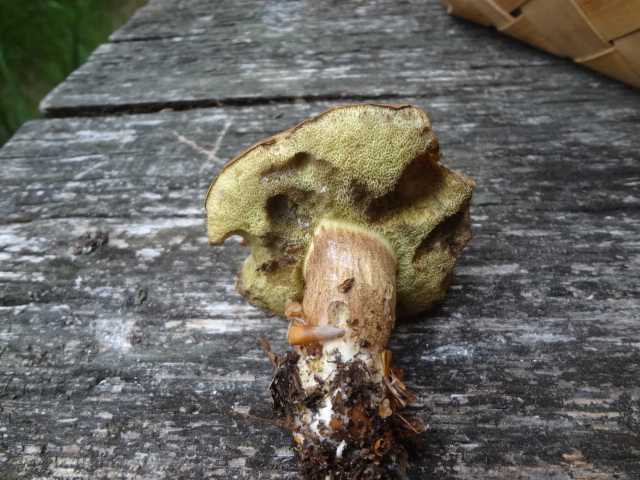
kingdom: Fungi
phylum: Basidiomycota
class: Agaricomycetes
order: Boletales
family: Boletaceae
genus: Imleria
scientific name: Imleria badia
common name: brunstokket rørhat
